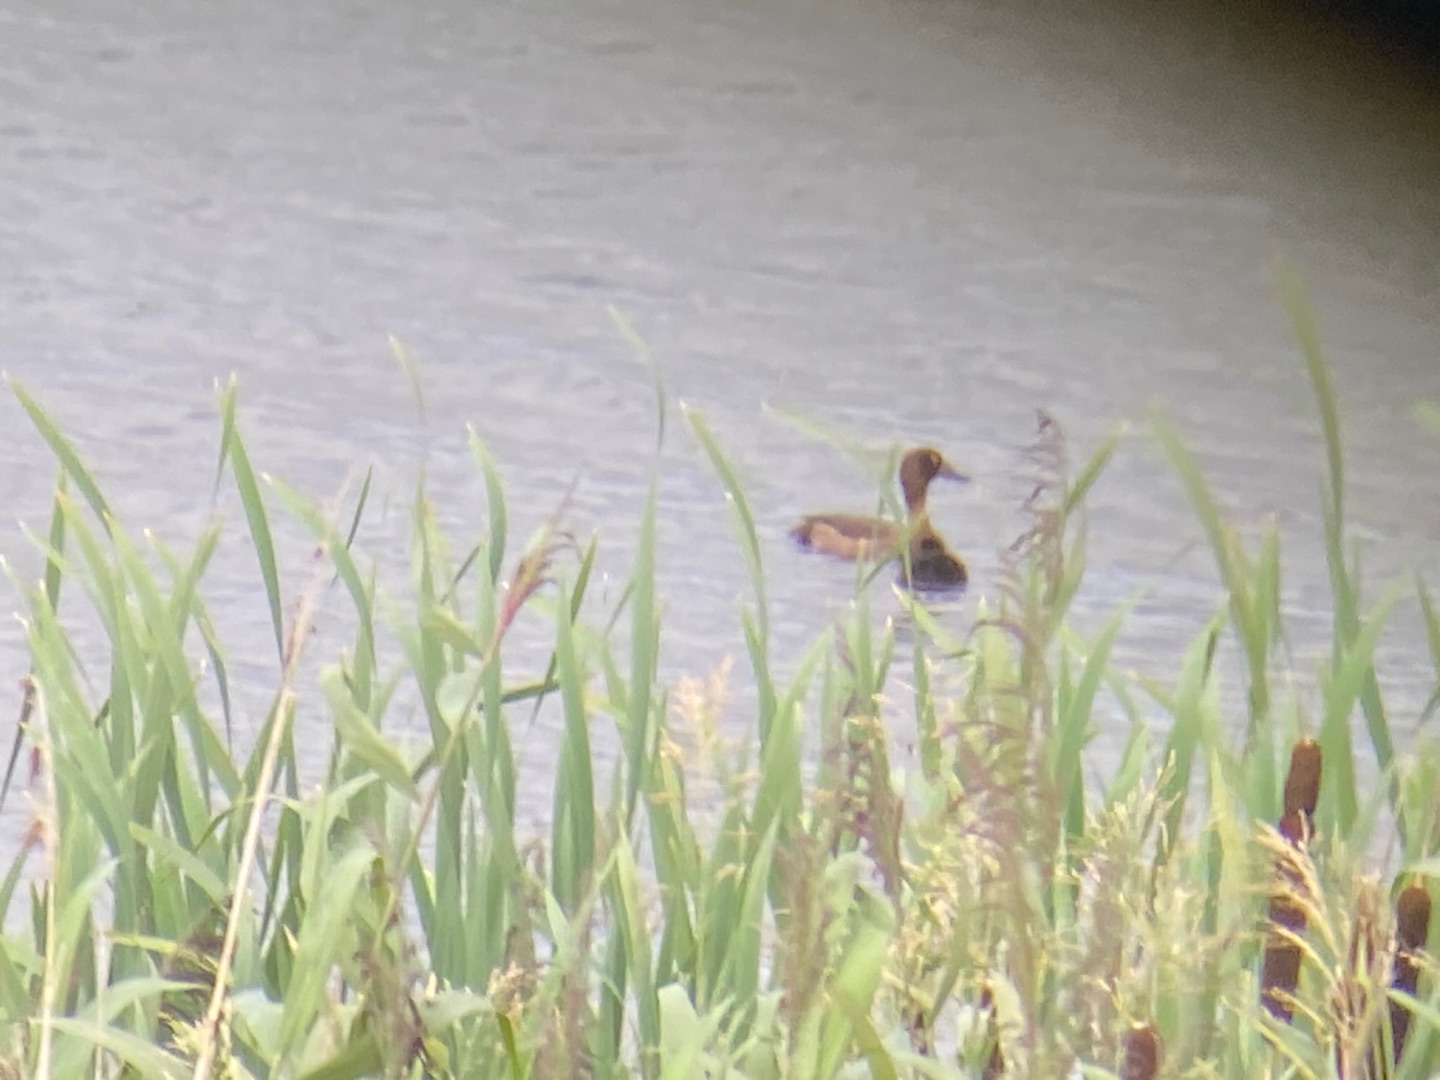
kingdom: Animalia
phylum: Chordata
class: Aves
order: Anseriformes
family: Anatidae
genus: Aythya
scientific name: Aythya fuligula
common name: Troldand
